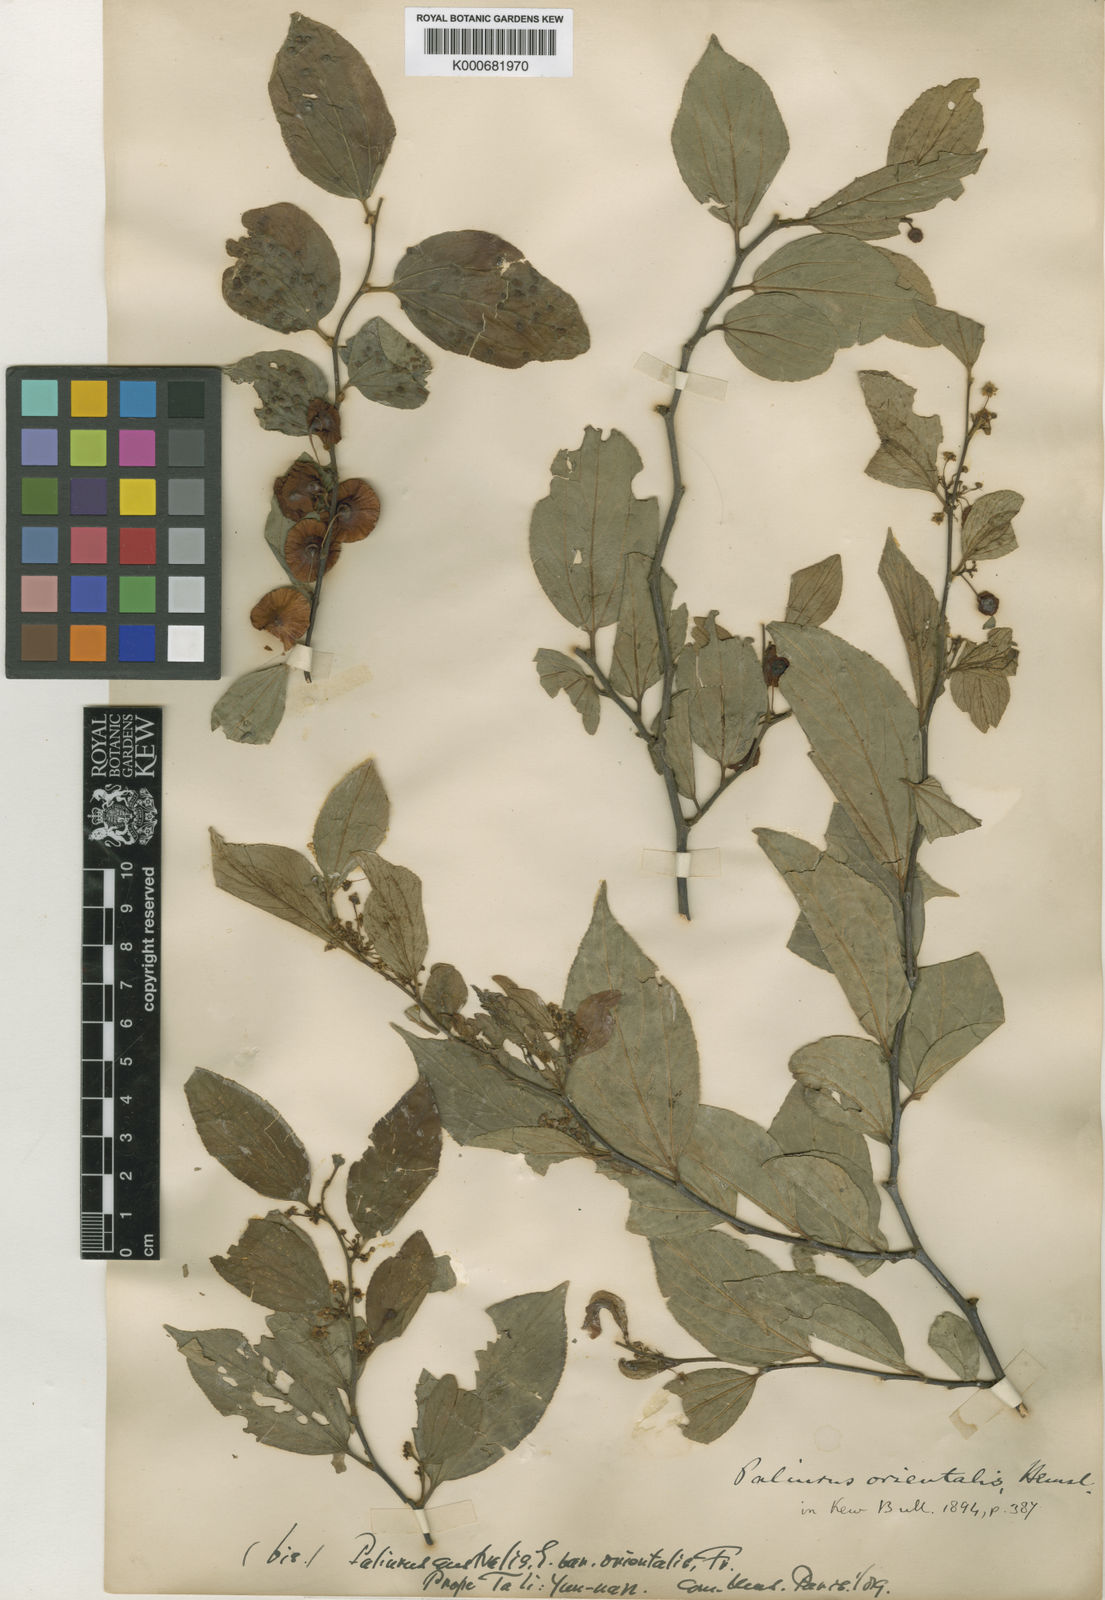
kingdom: Plantae
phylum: Tracheophyta
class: Magnoliopsida
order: Rosales
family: Rhamnaceae
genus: Paliurus
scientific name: Paliurus hemsleyanus
